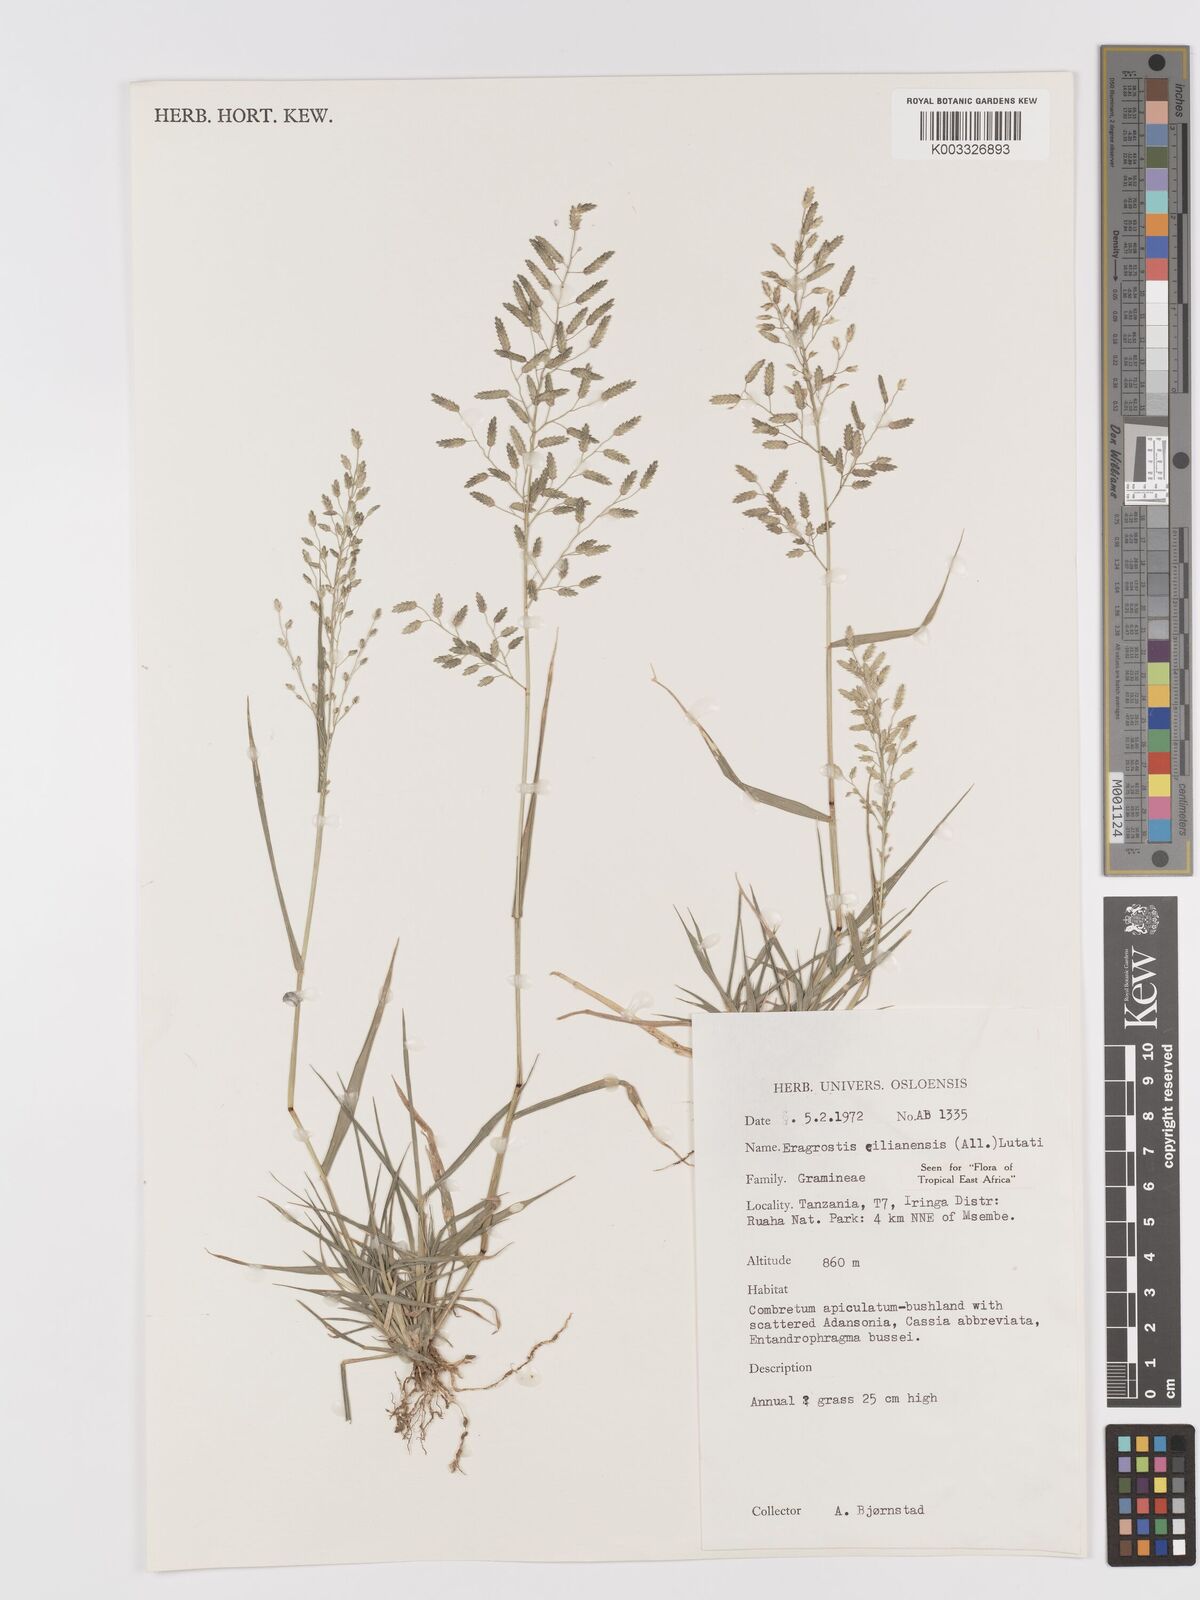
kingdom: Plantae
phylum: Tracheophyta
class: Liliopsida
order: Poales
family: Poaceae
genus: Eragrostis
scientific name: Eragrostis cilianensis
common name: Stinkgrass
